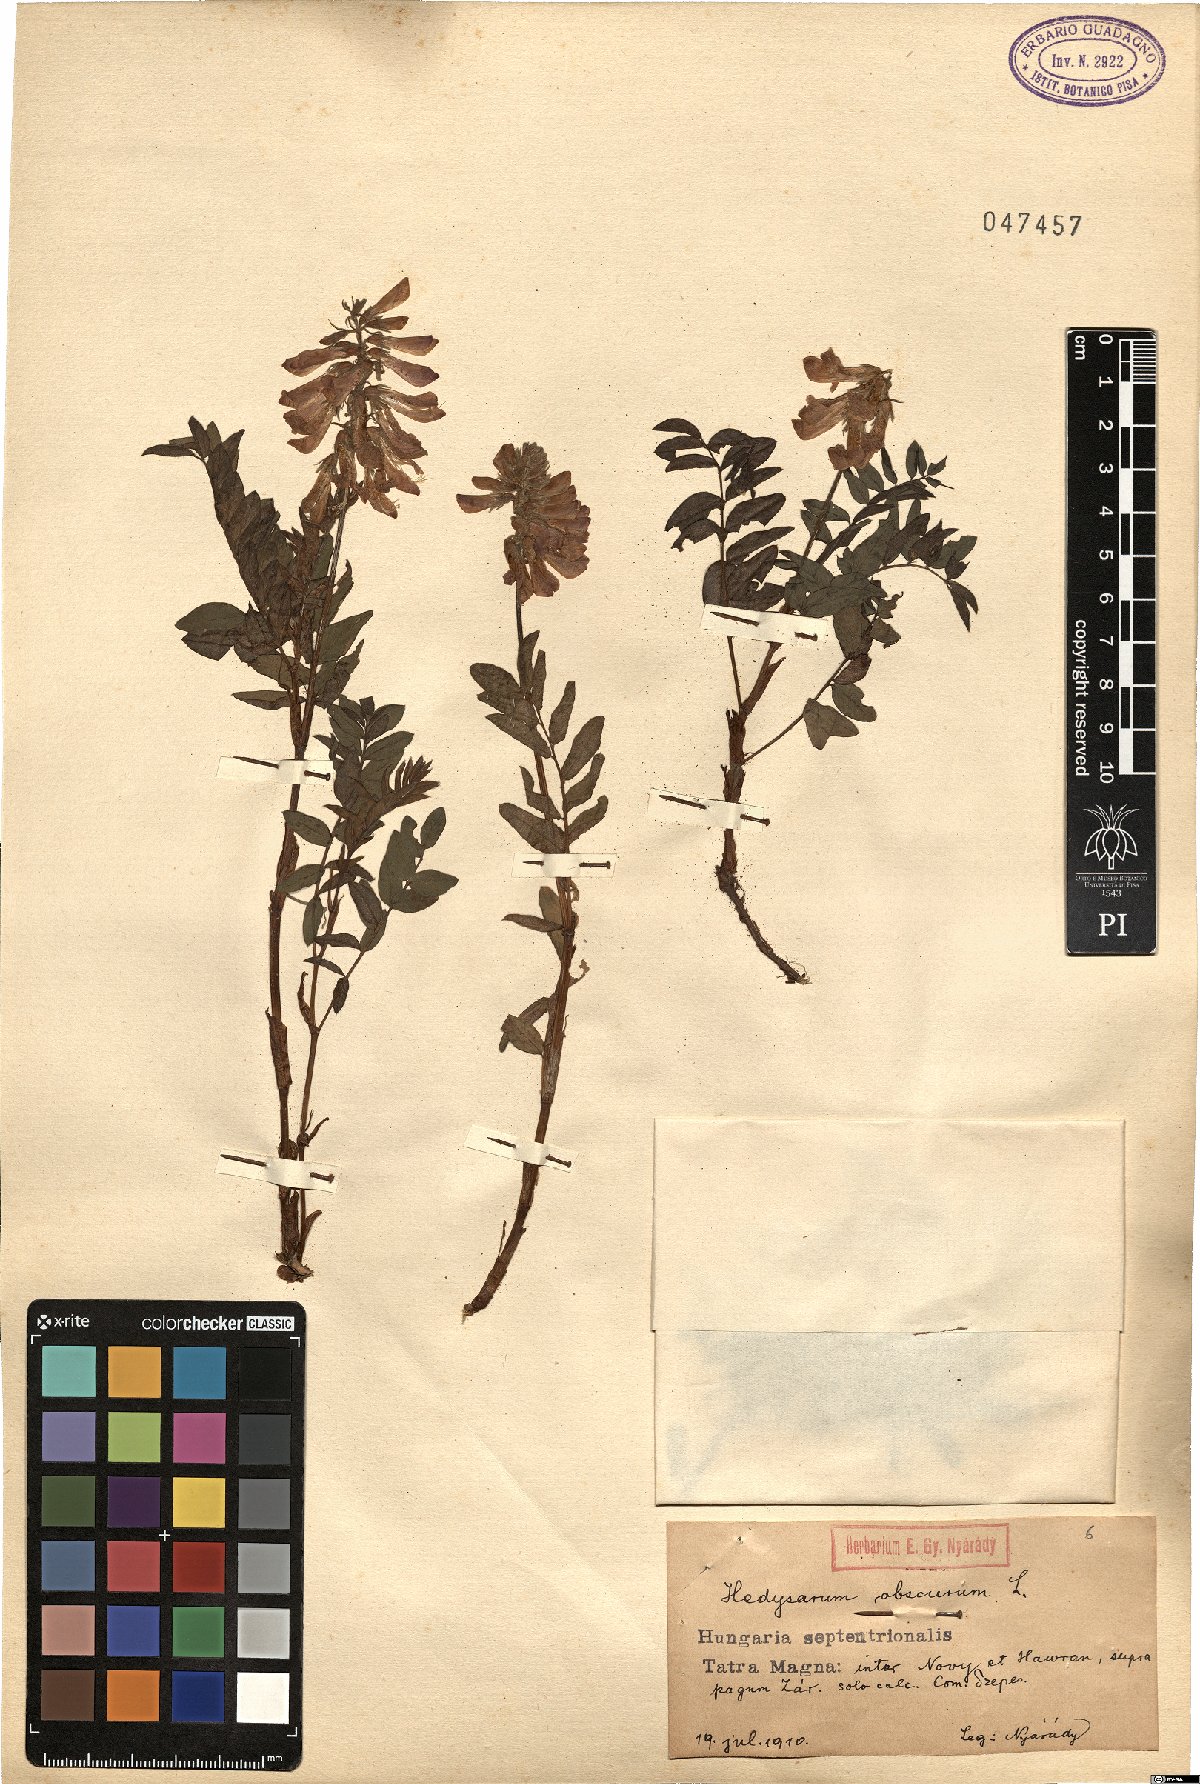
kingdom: Plantae
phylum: Tracheophyta
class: Magnoliopsida
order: Fabales
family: Fabaceae
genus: Hedysarum
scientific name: Hedysarum hedysaroides
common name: Alpine french-honeysuckle
